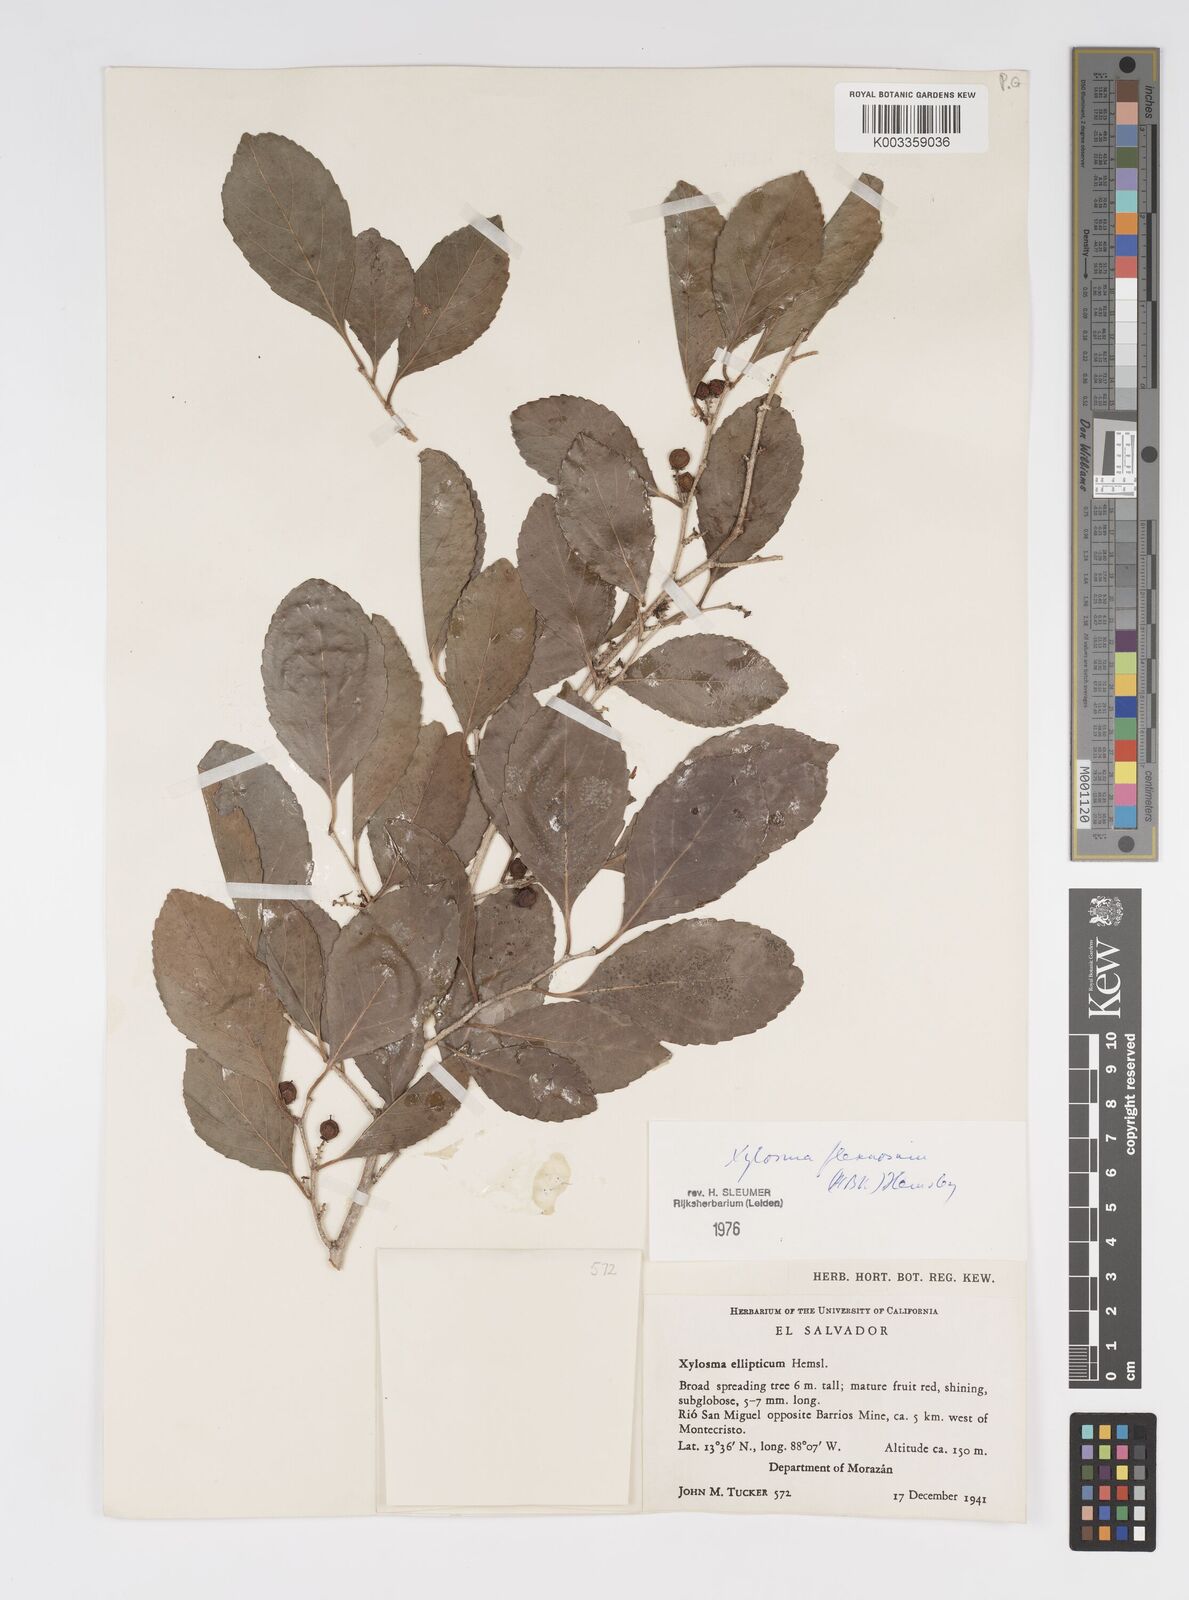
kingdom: Plantae
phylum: Tracheophyta
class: Magnoliopsida
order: Malpighiales
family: Salicaceae
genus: Xylosma
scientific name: Xylosma flexuosa
